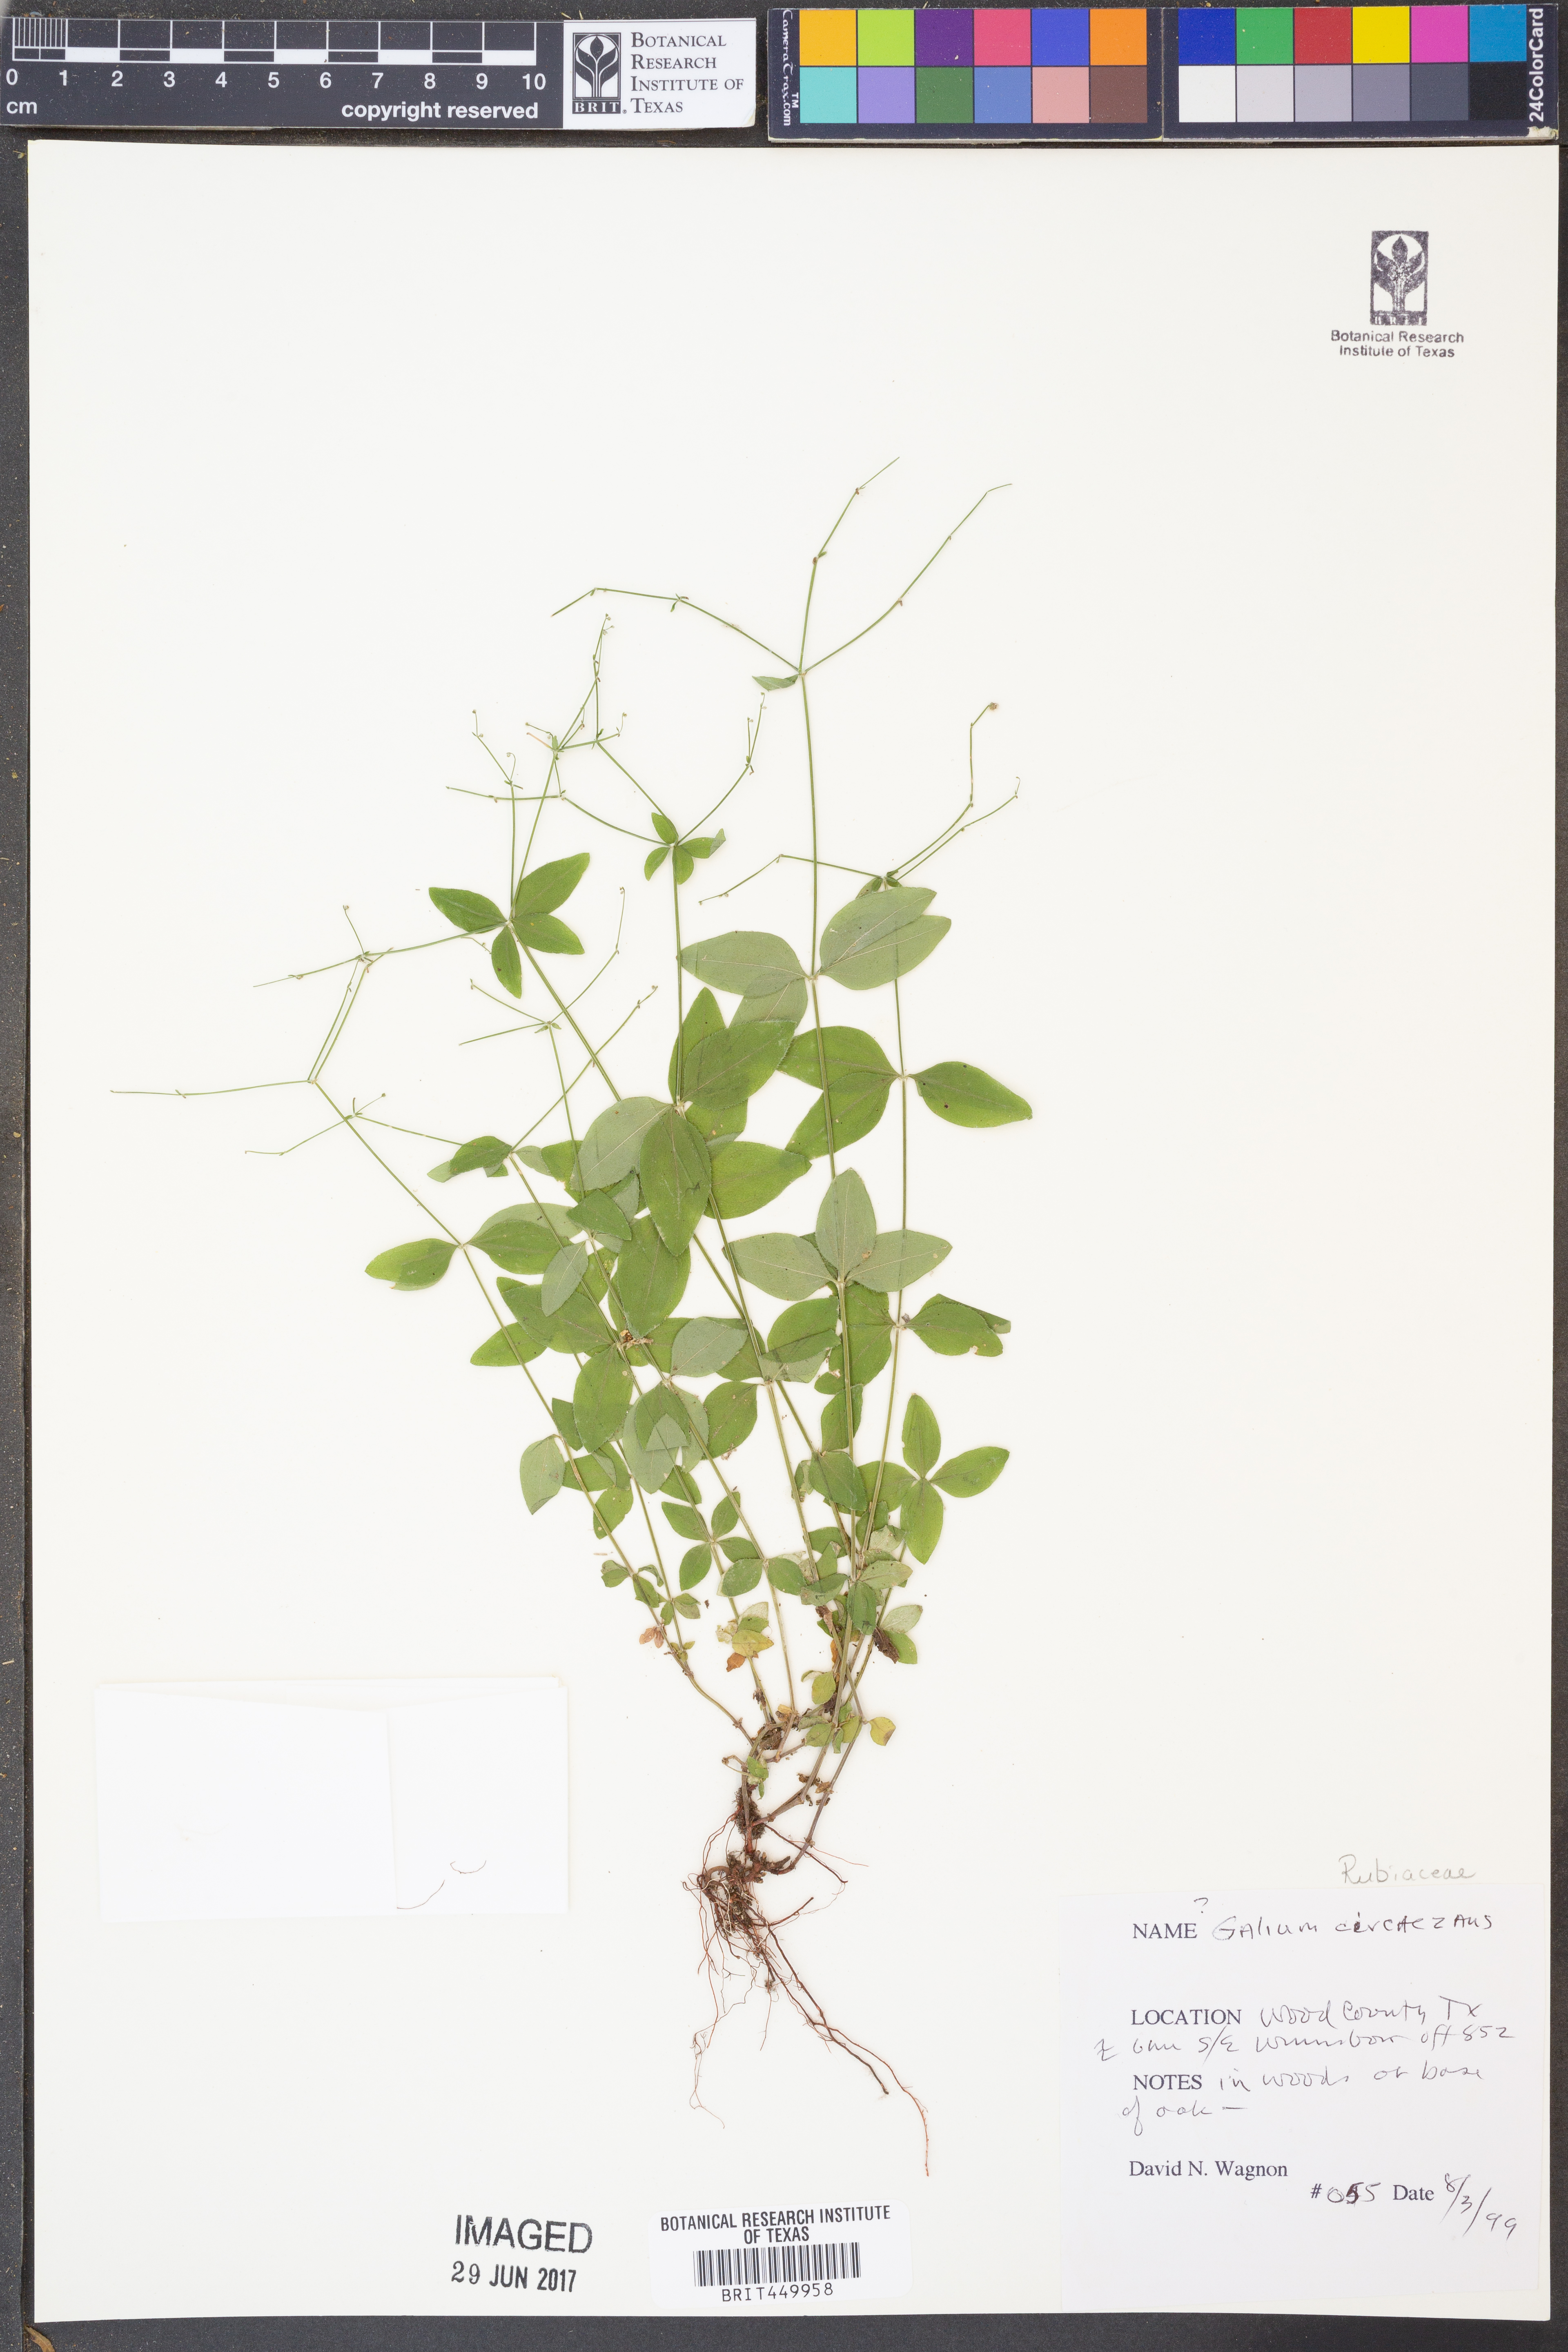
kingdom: Plantae
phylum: Tracheophyta
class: Magnoliopsida
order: Gentianales
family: Rubiaceae
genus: Galium
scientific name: Galium circaezans
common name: Forest bedstraw
